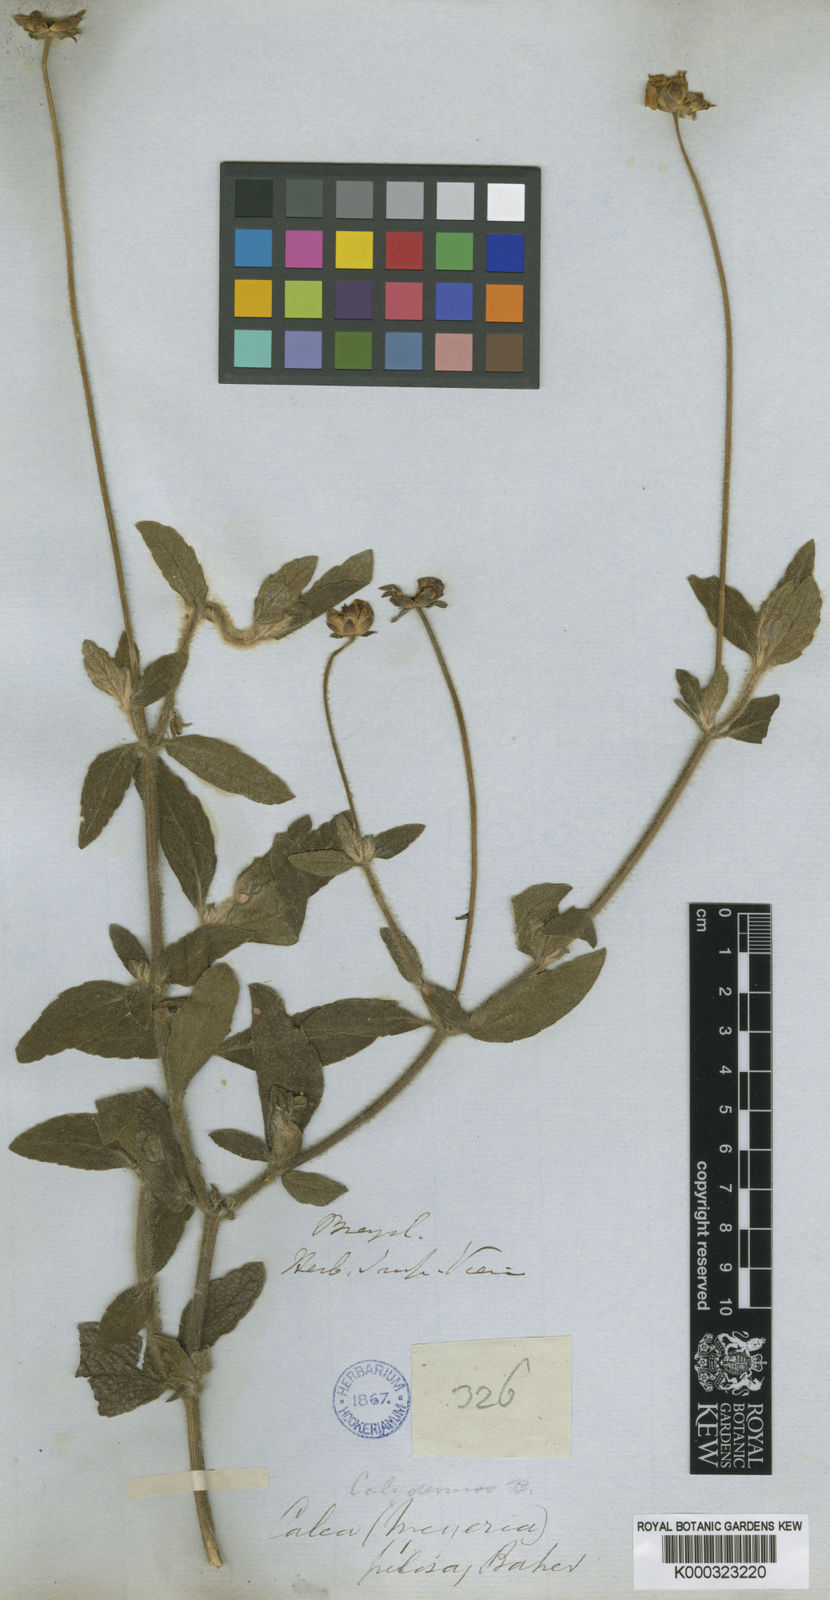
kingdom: Plantae
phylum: Tracheophyta
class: Magnoliopsida
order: Asterales
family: Asteraceae
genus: Calea
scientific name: Calea pilosa
